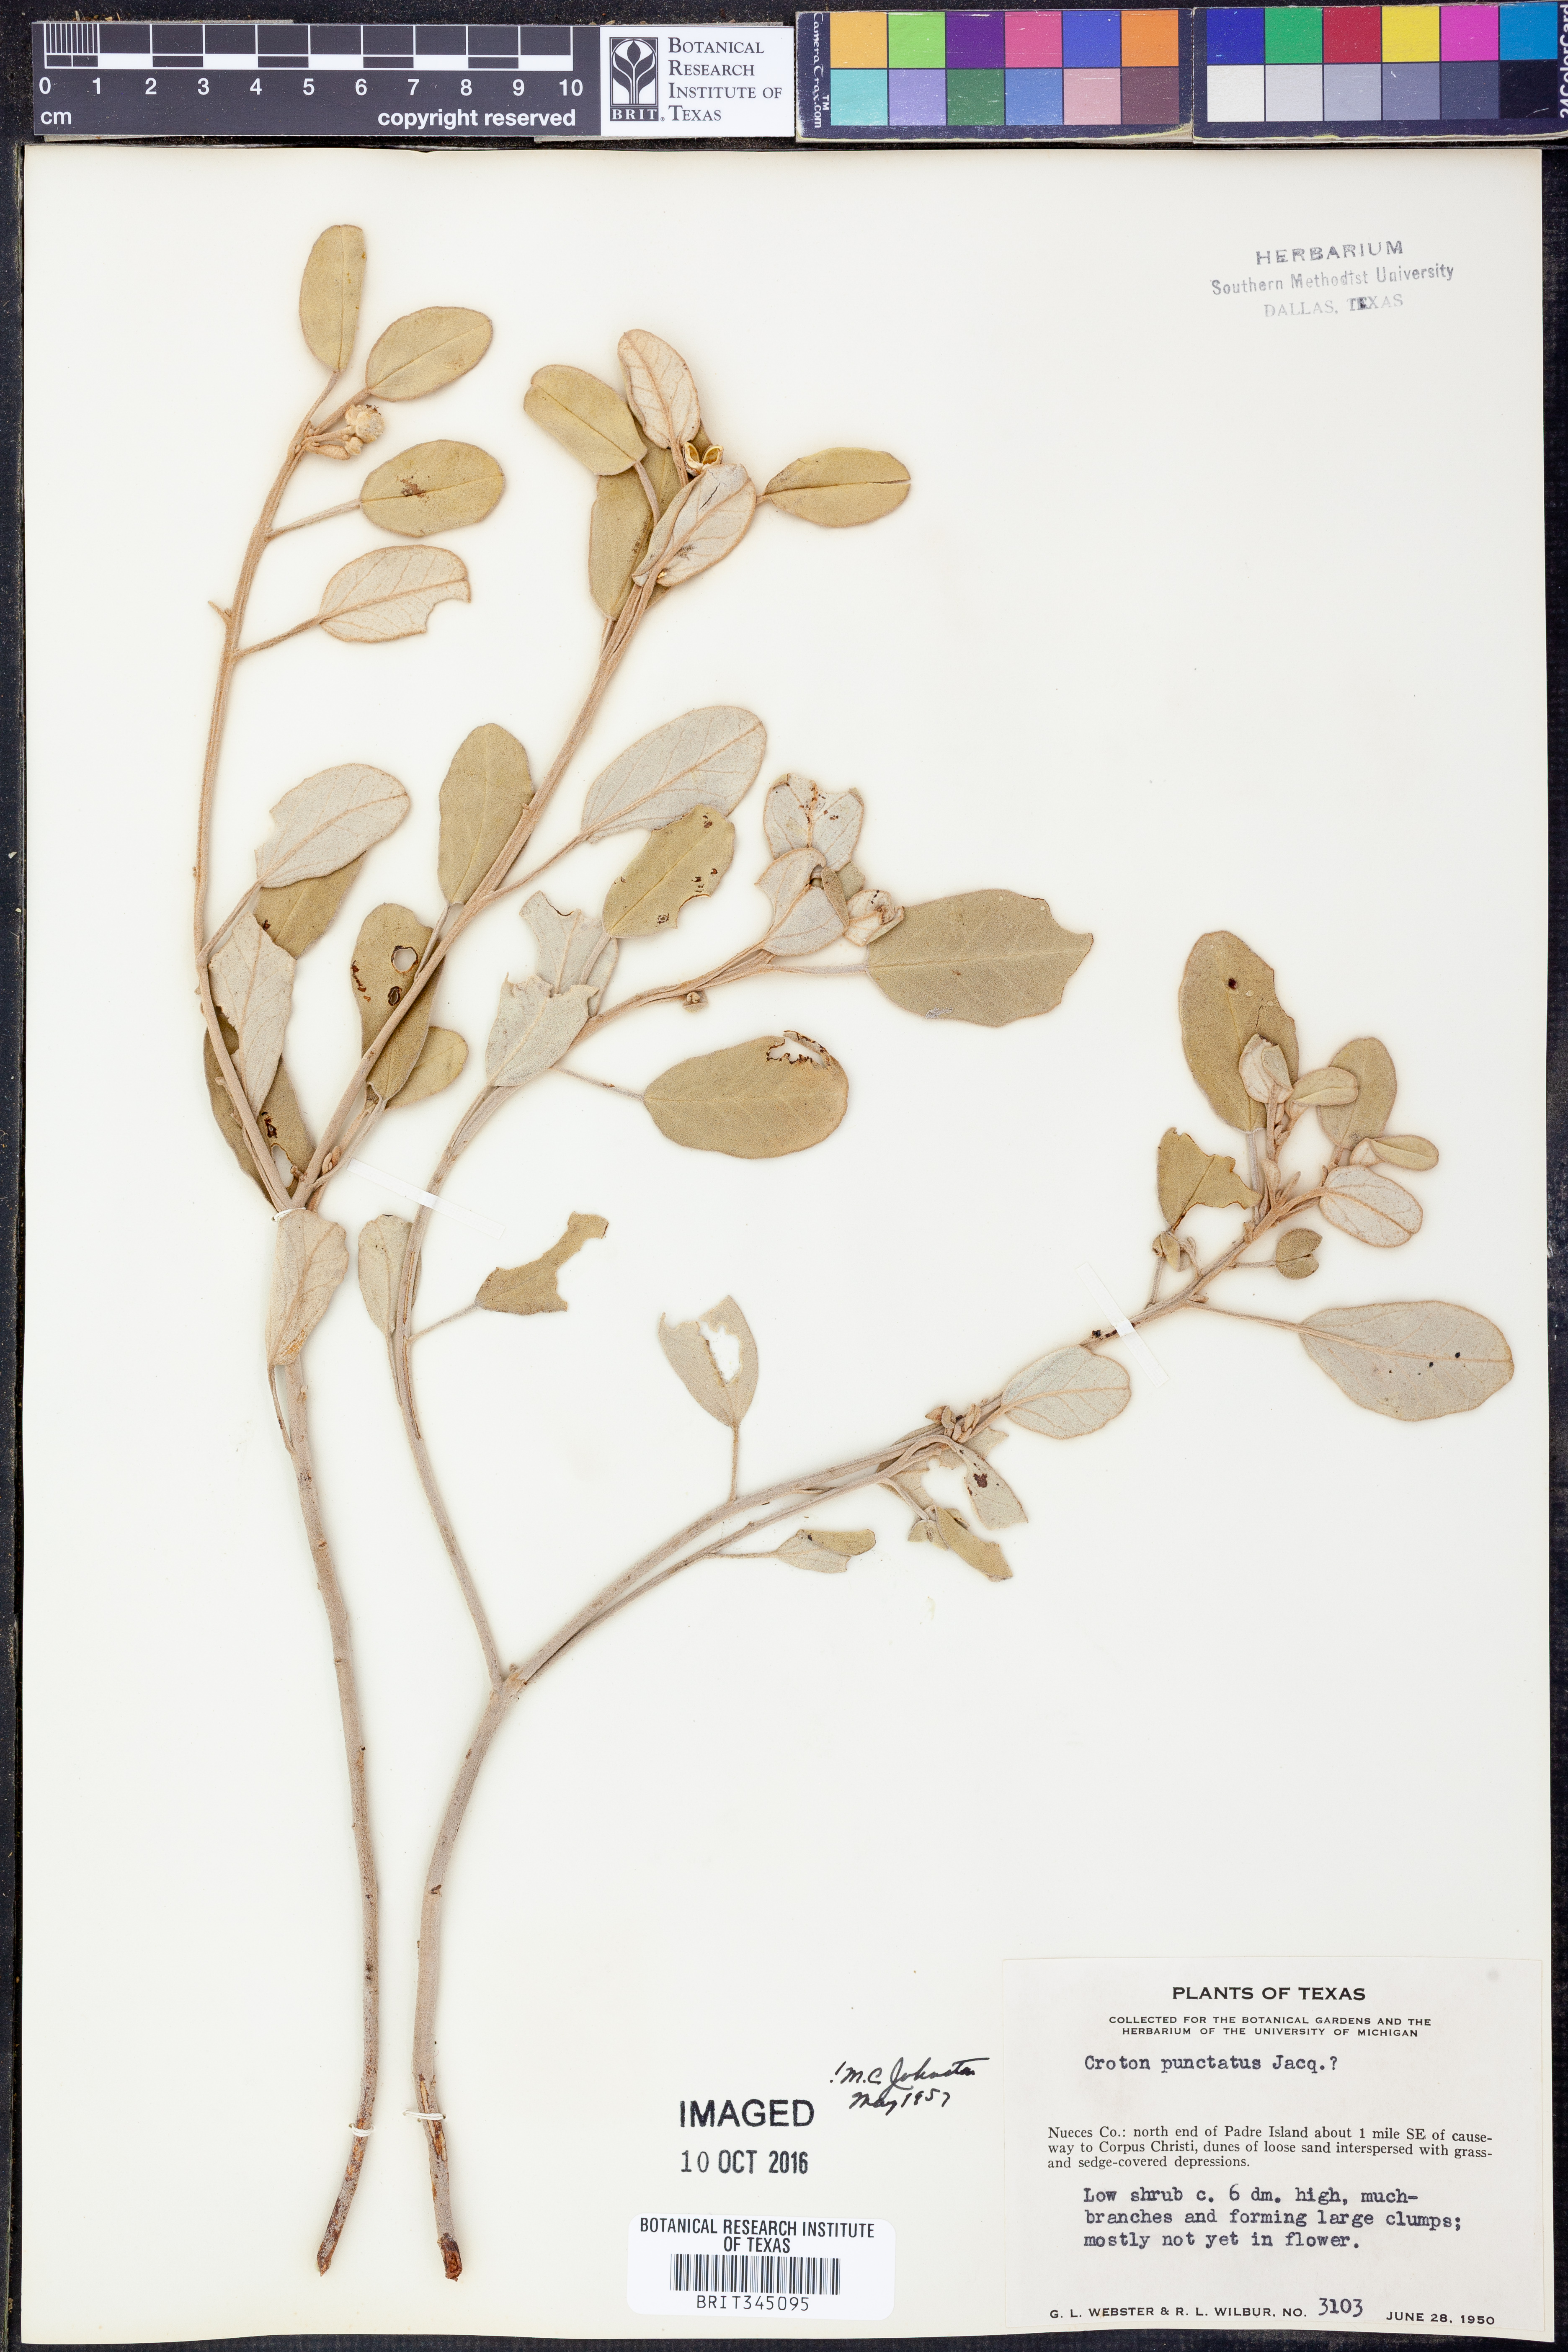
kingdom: Plantae
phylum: Tracheophyta
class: Magnoliopsida
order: Malpighiales
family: Euphorbiaceae
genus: Croton
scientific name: Croton punctatus
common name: Beach-tea
